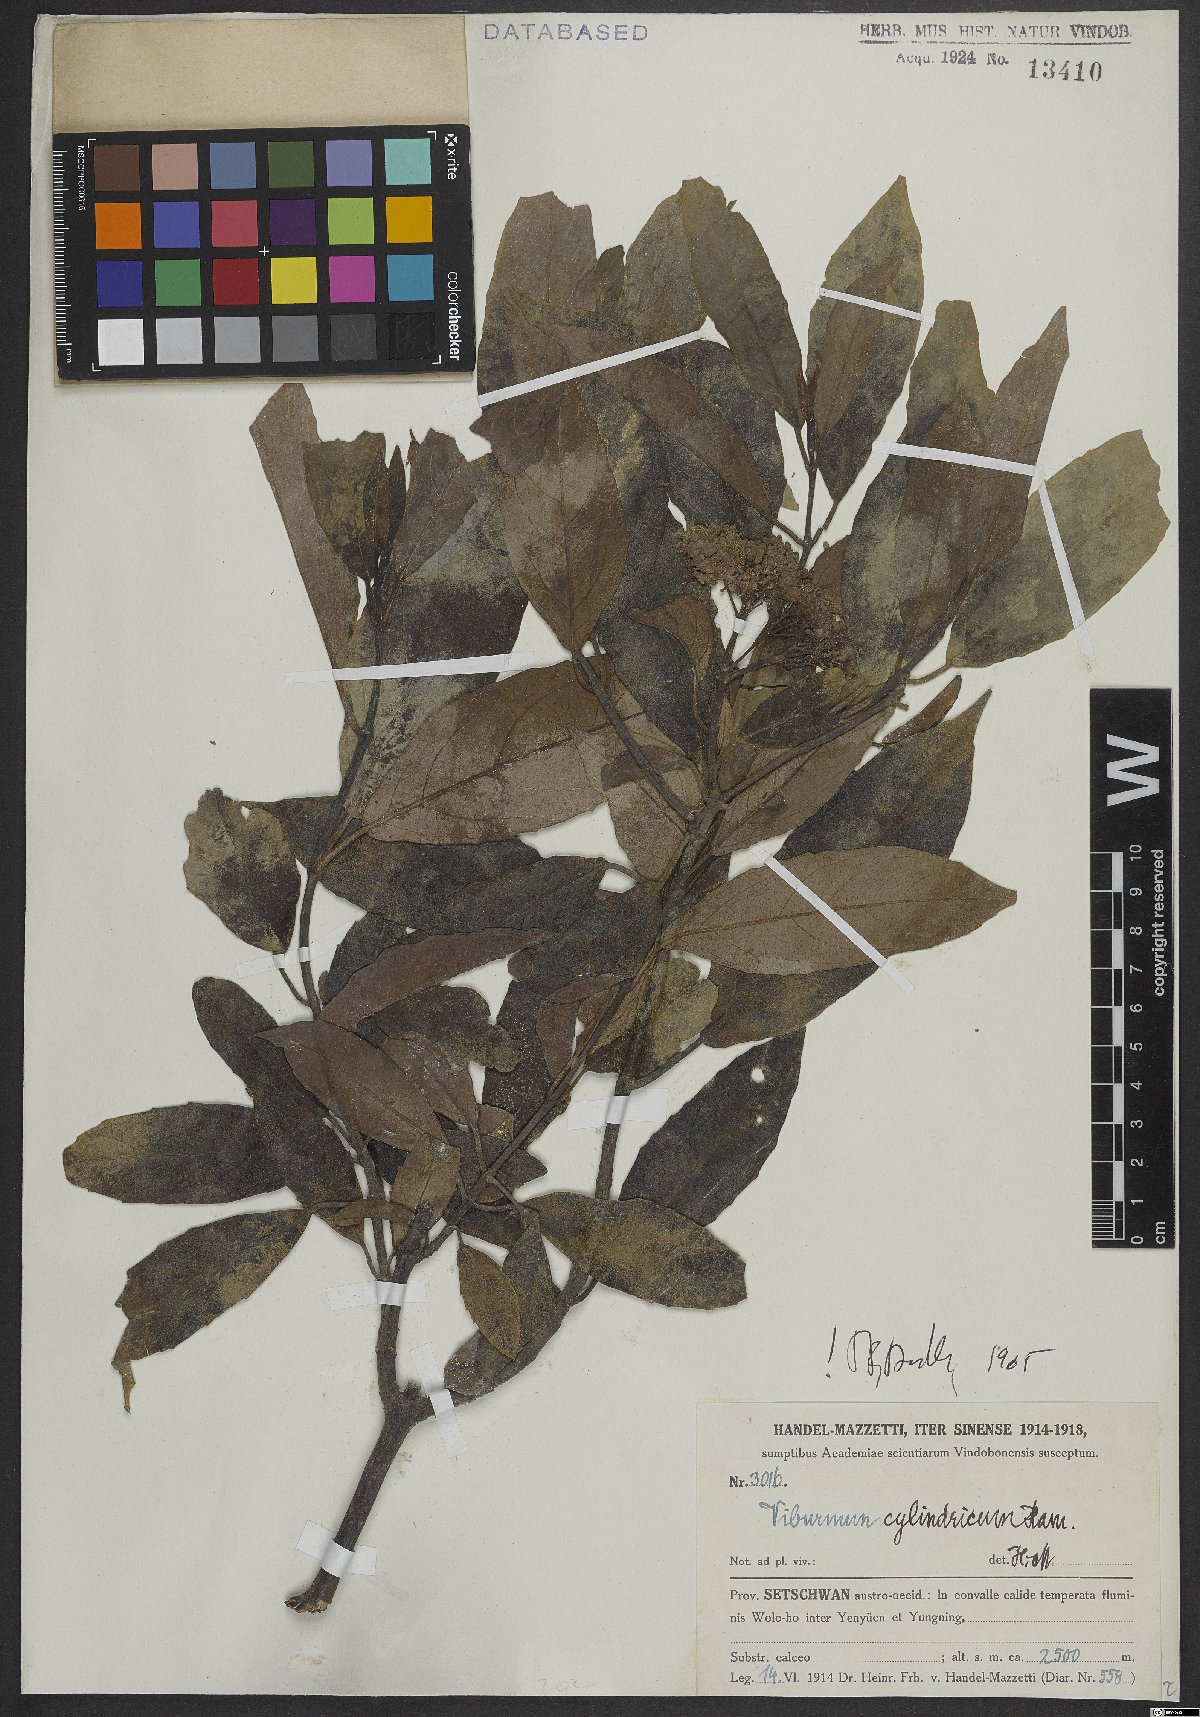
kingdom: Plantae
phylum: Tracheophyta
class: Magnoliopsida
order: Dipsacales
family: Viburnaceae
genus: Viburnum
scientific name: Viburnum cylindricum
